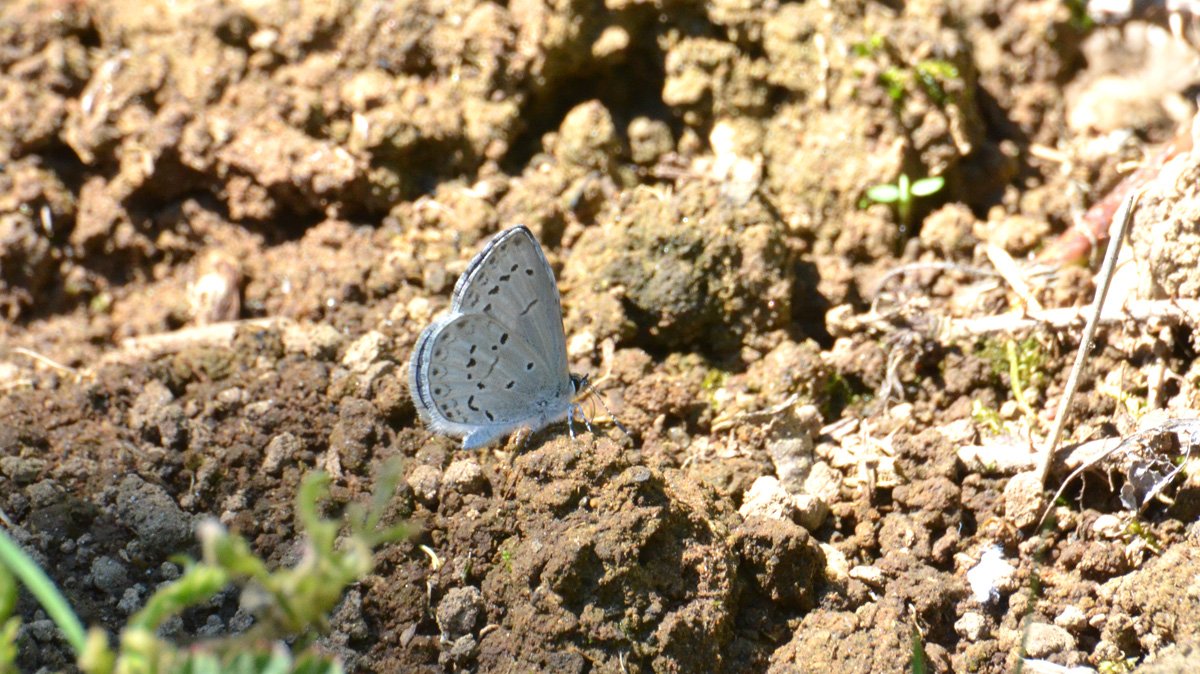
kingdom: Animalia
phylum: Arthropoda
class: Insecta
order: Lepidoptera
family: Lycaenidae
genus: Celastrina
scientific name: Celastrina ladon
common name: Echo Azure
